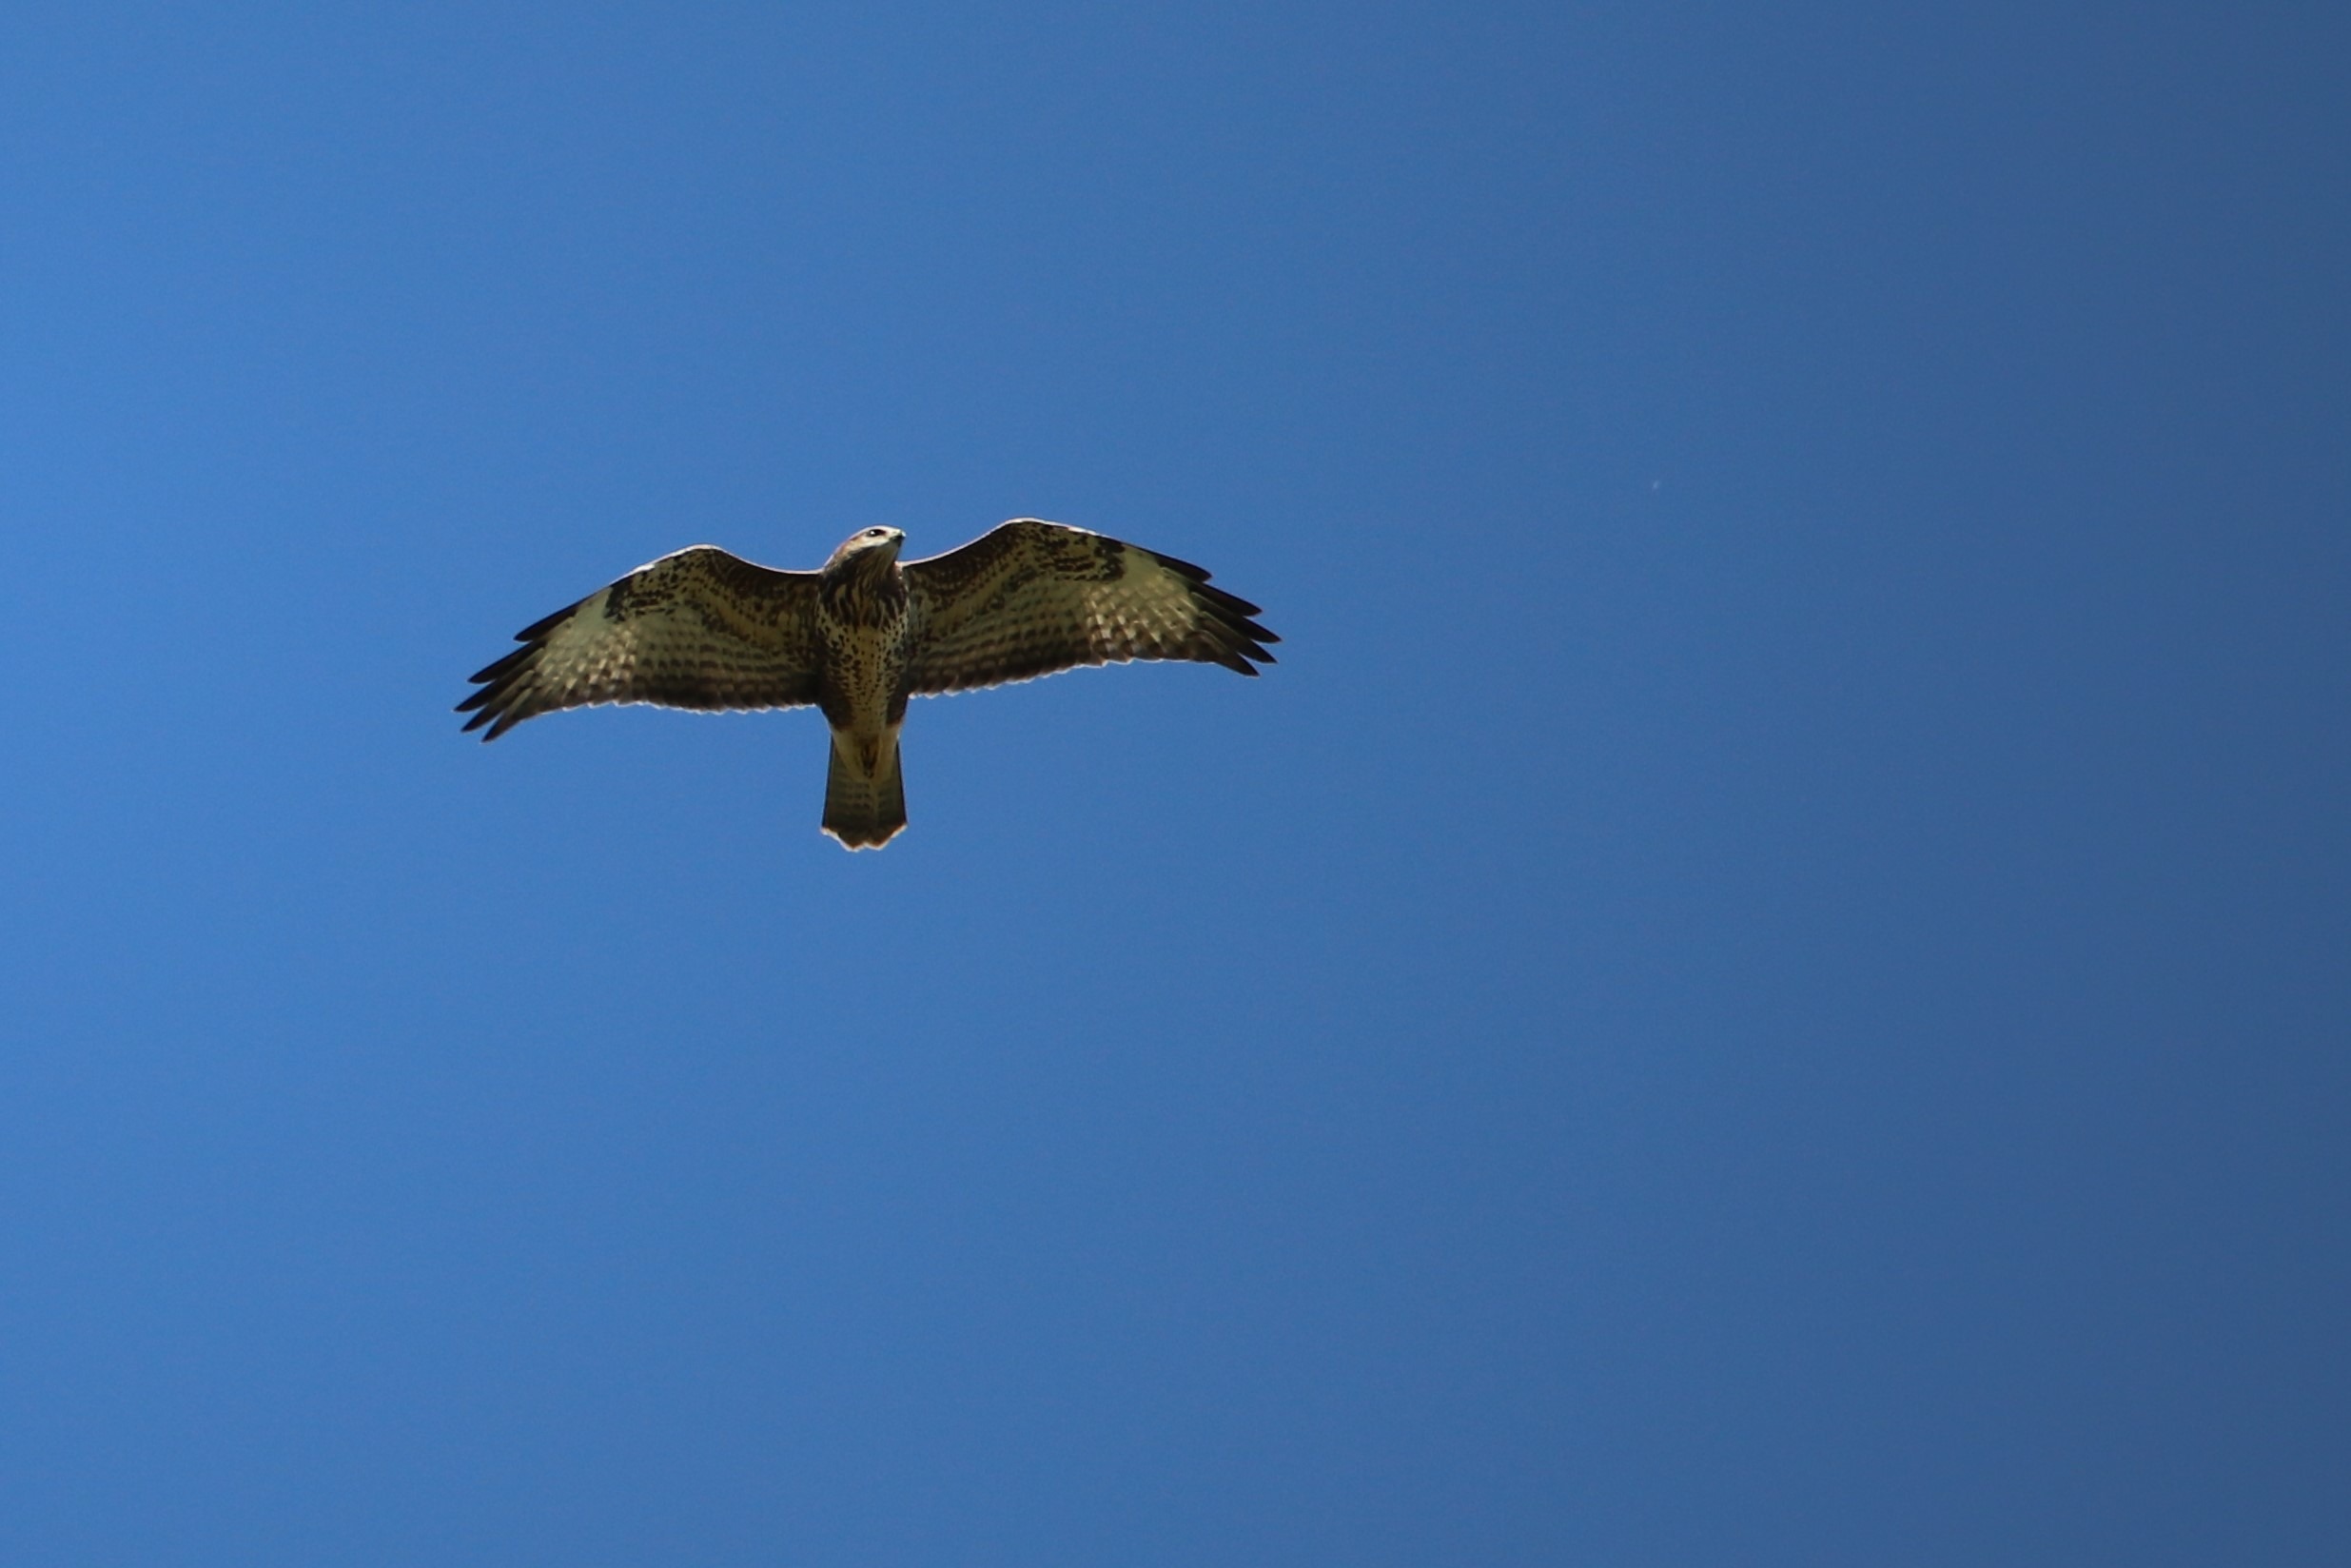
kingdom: Animalia
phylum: Chordata
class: Aves
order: Accipitriformes
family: Accipitridae
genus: Buteo
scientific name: Buteo buteo
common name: Musvåge
